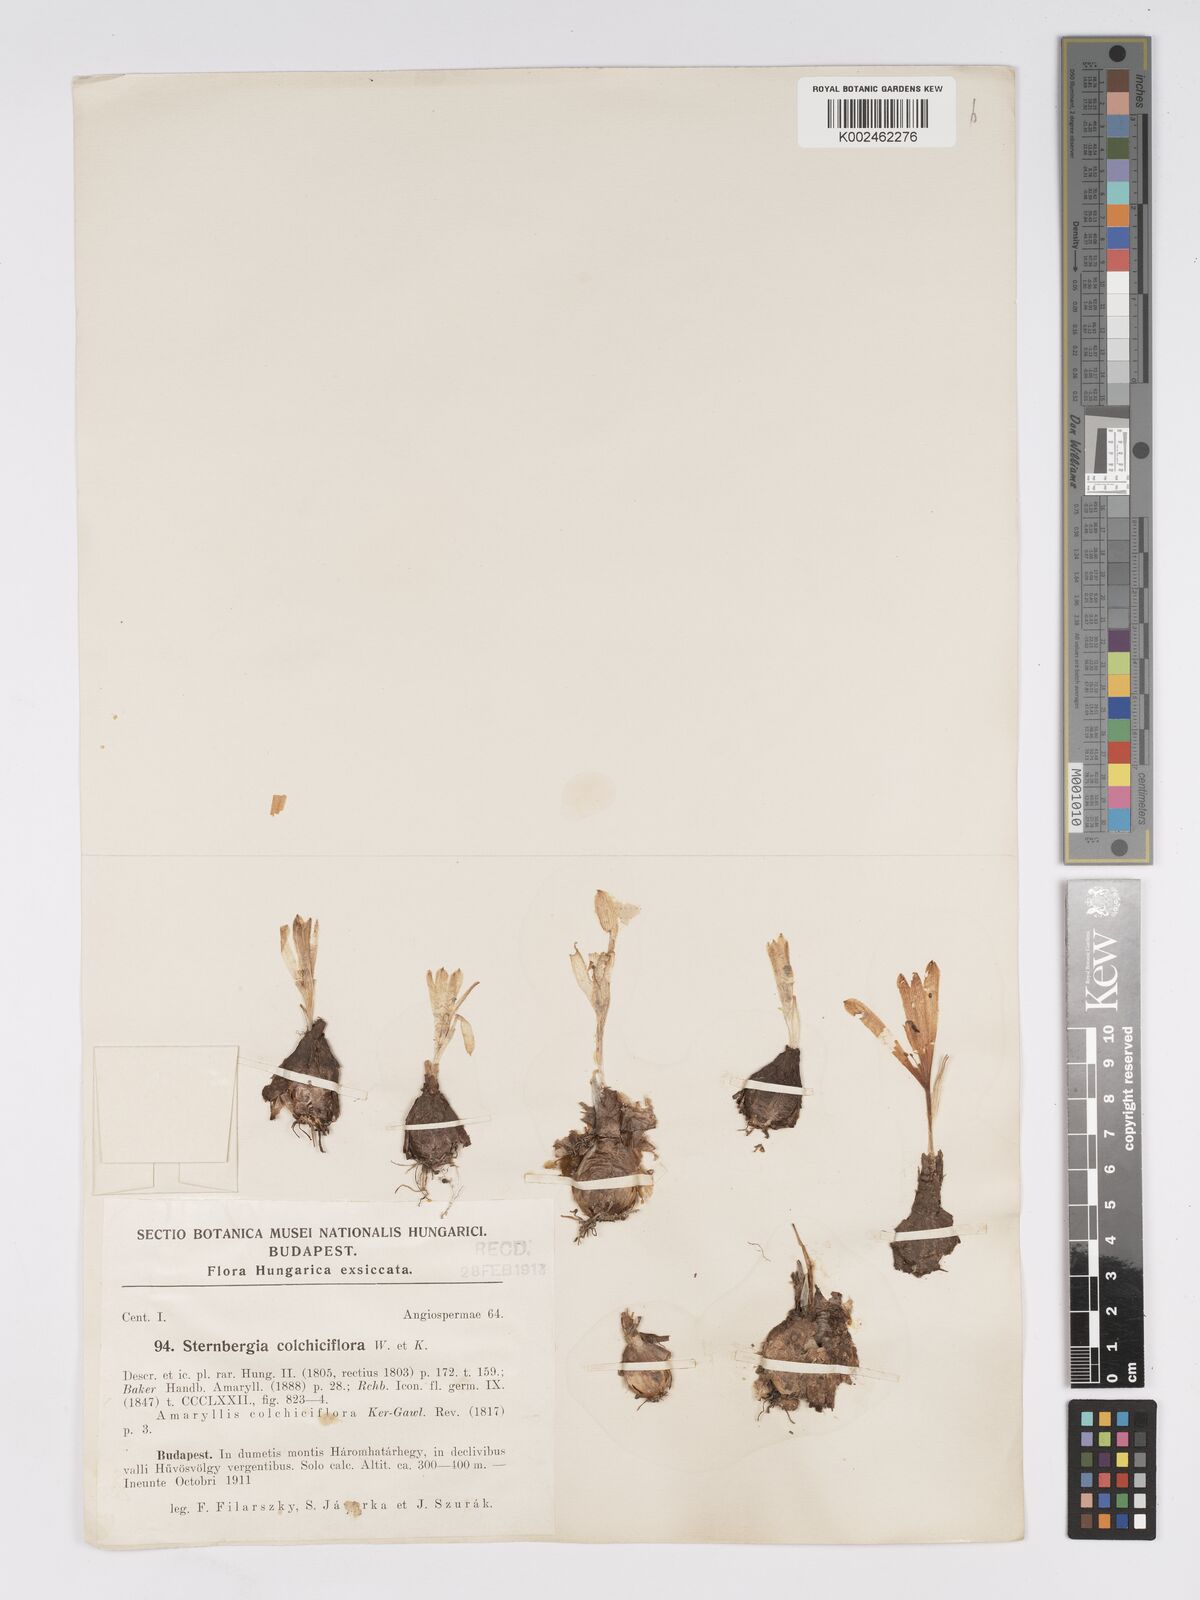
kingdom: Plantae
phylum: Tracheophyta
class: Liliopsida
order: Asparagales
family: Amaryllidaceae
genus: Sternbergia
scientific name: Sternbergia colchiciflora
